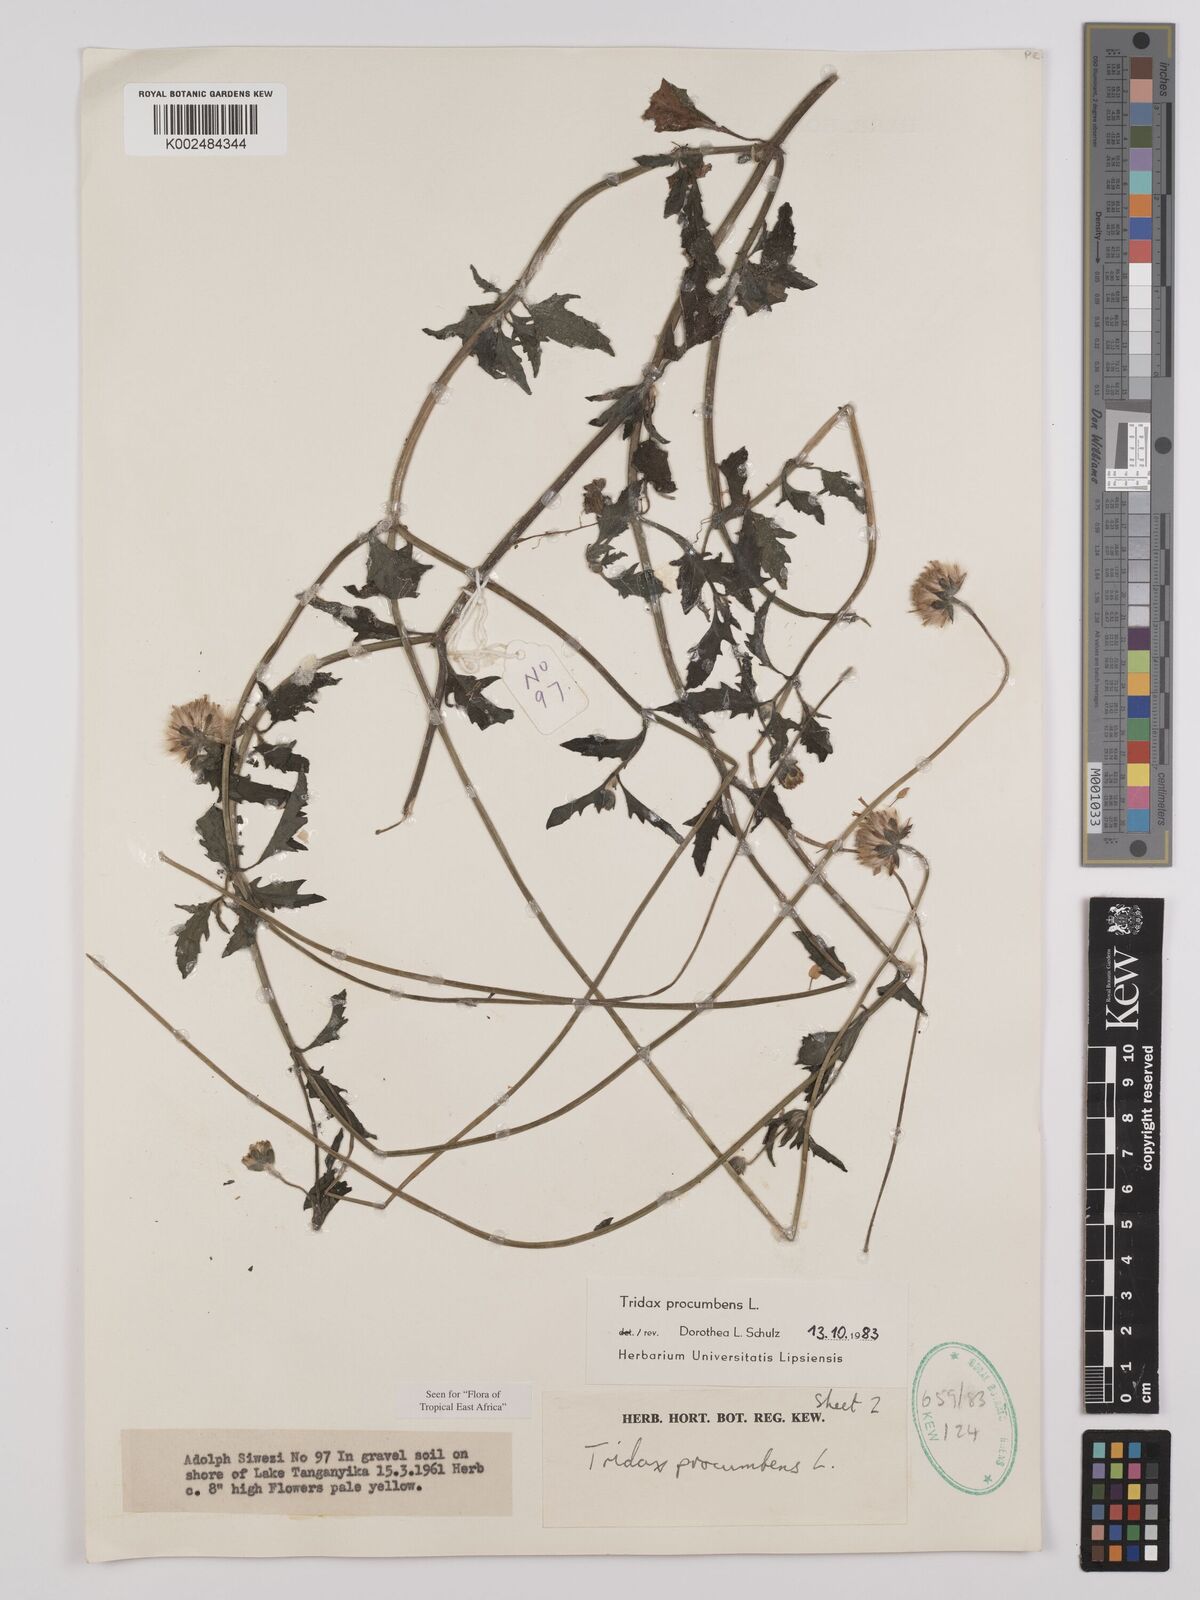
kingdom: Plantae
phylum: Tracheophyta
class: Magnoliopsida
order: Asterales
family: Asteraceae
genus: Tridax
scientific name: Tridax procumbens
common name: Coatbuttons
